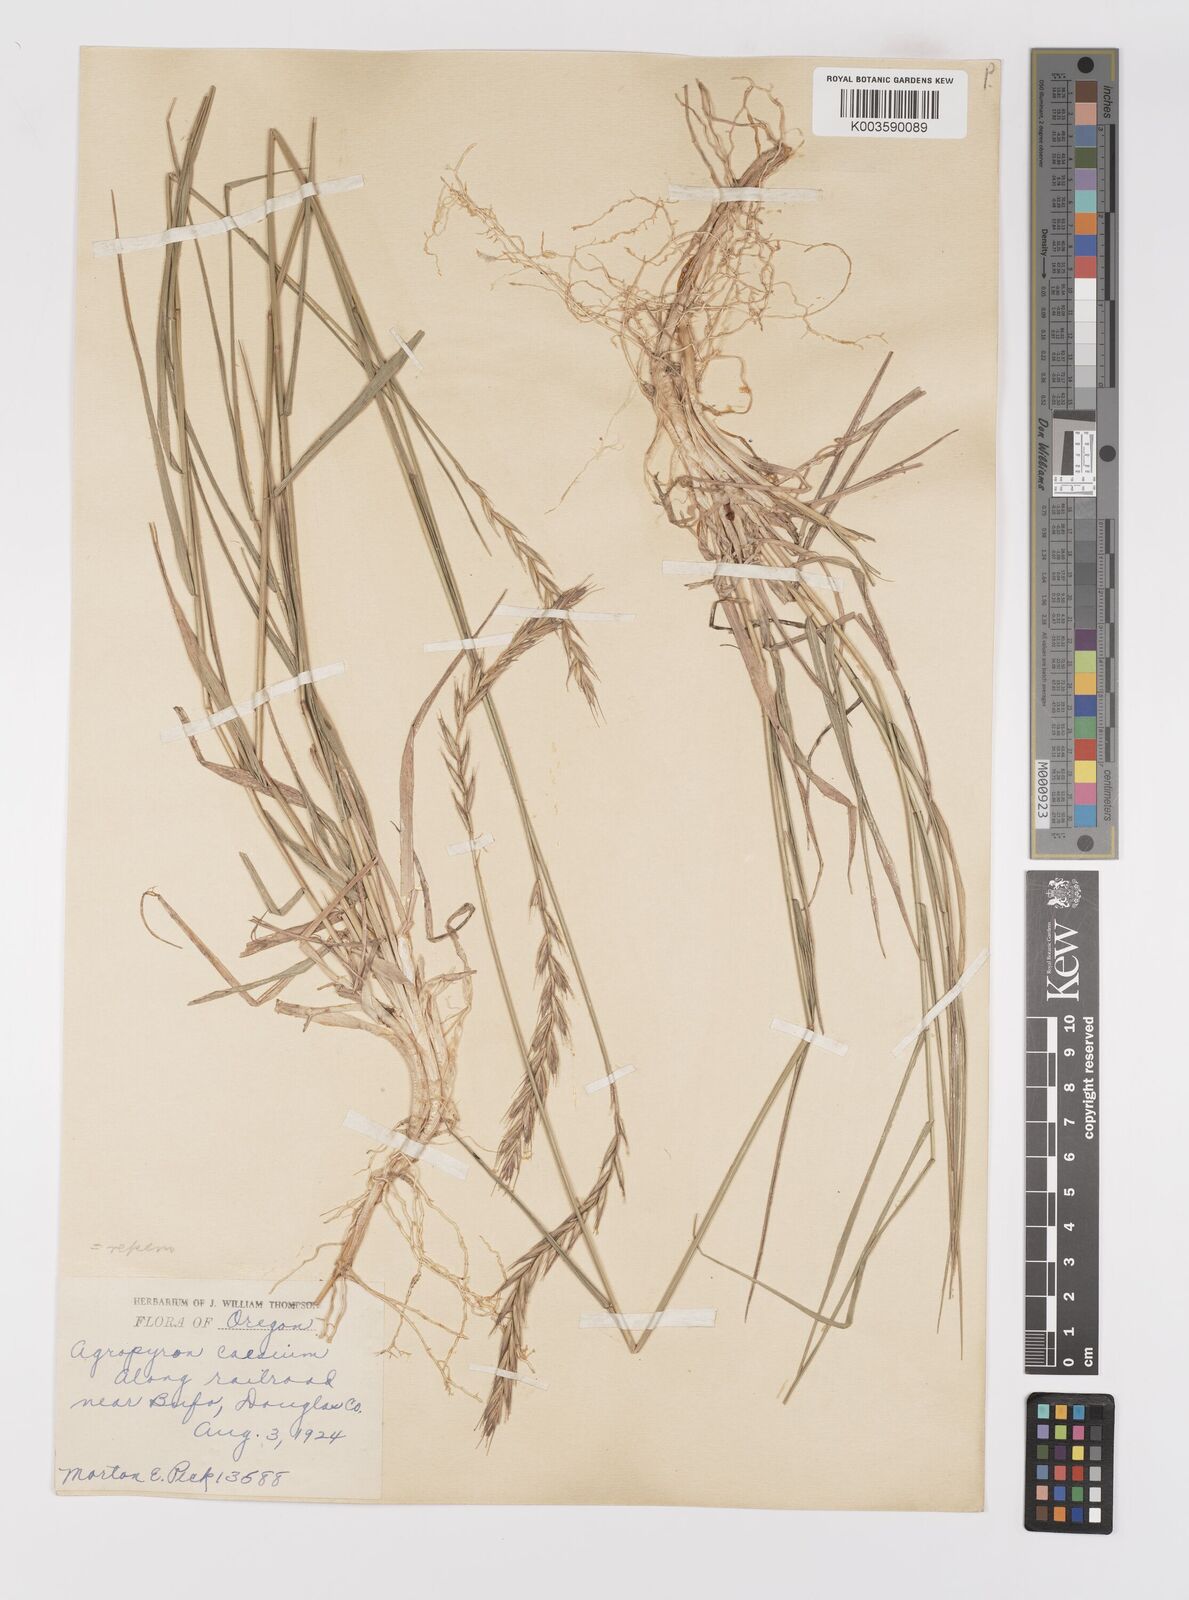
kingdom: Plantae
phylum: Tracheophyta
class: Liliopsida
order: Poales
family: Poaceae
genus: Elymus
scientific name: Elymus repens
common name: Quackgrass
